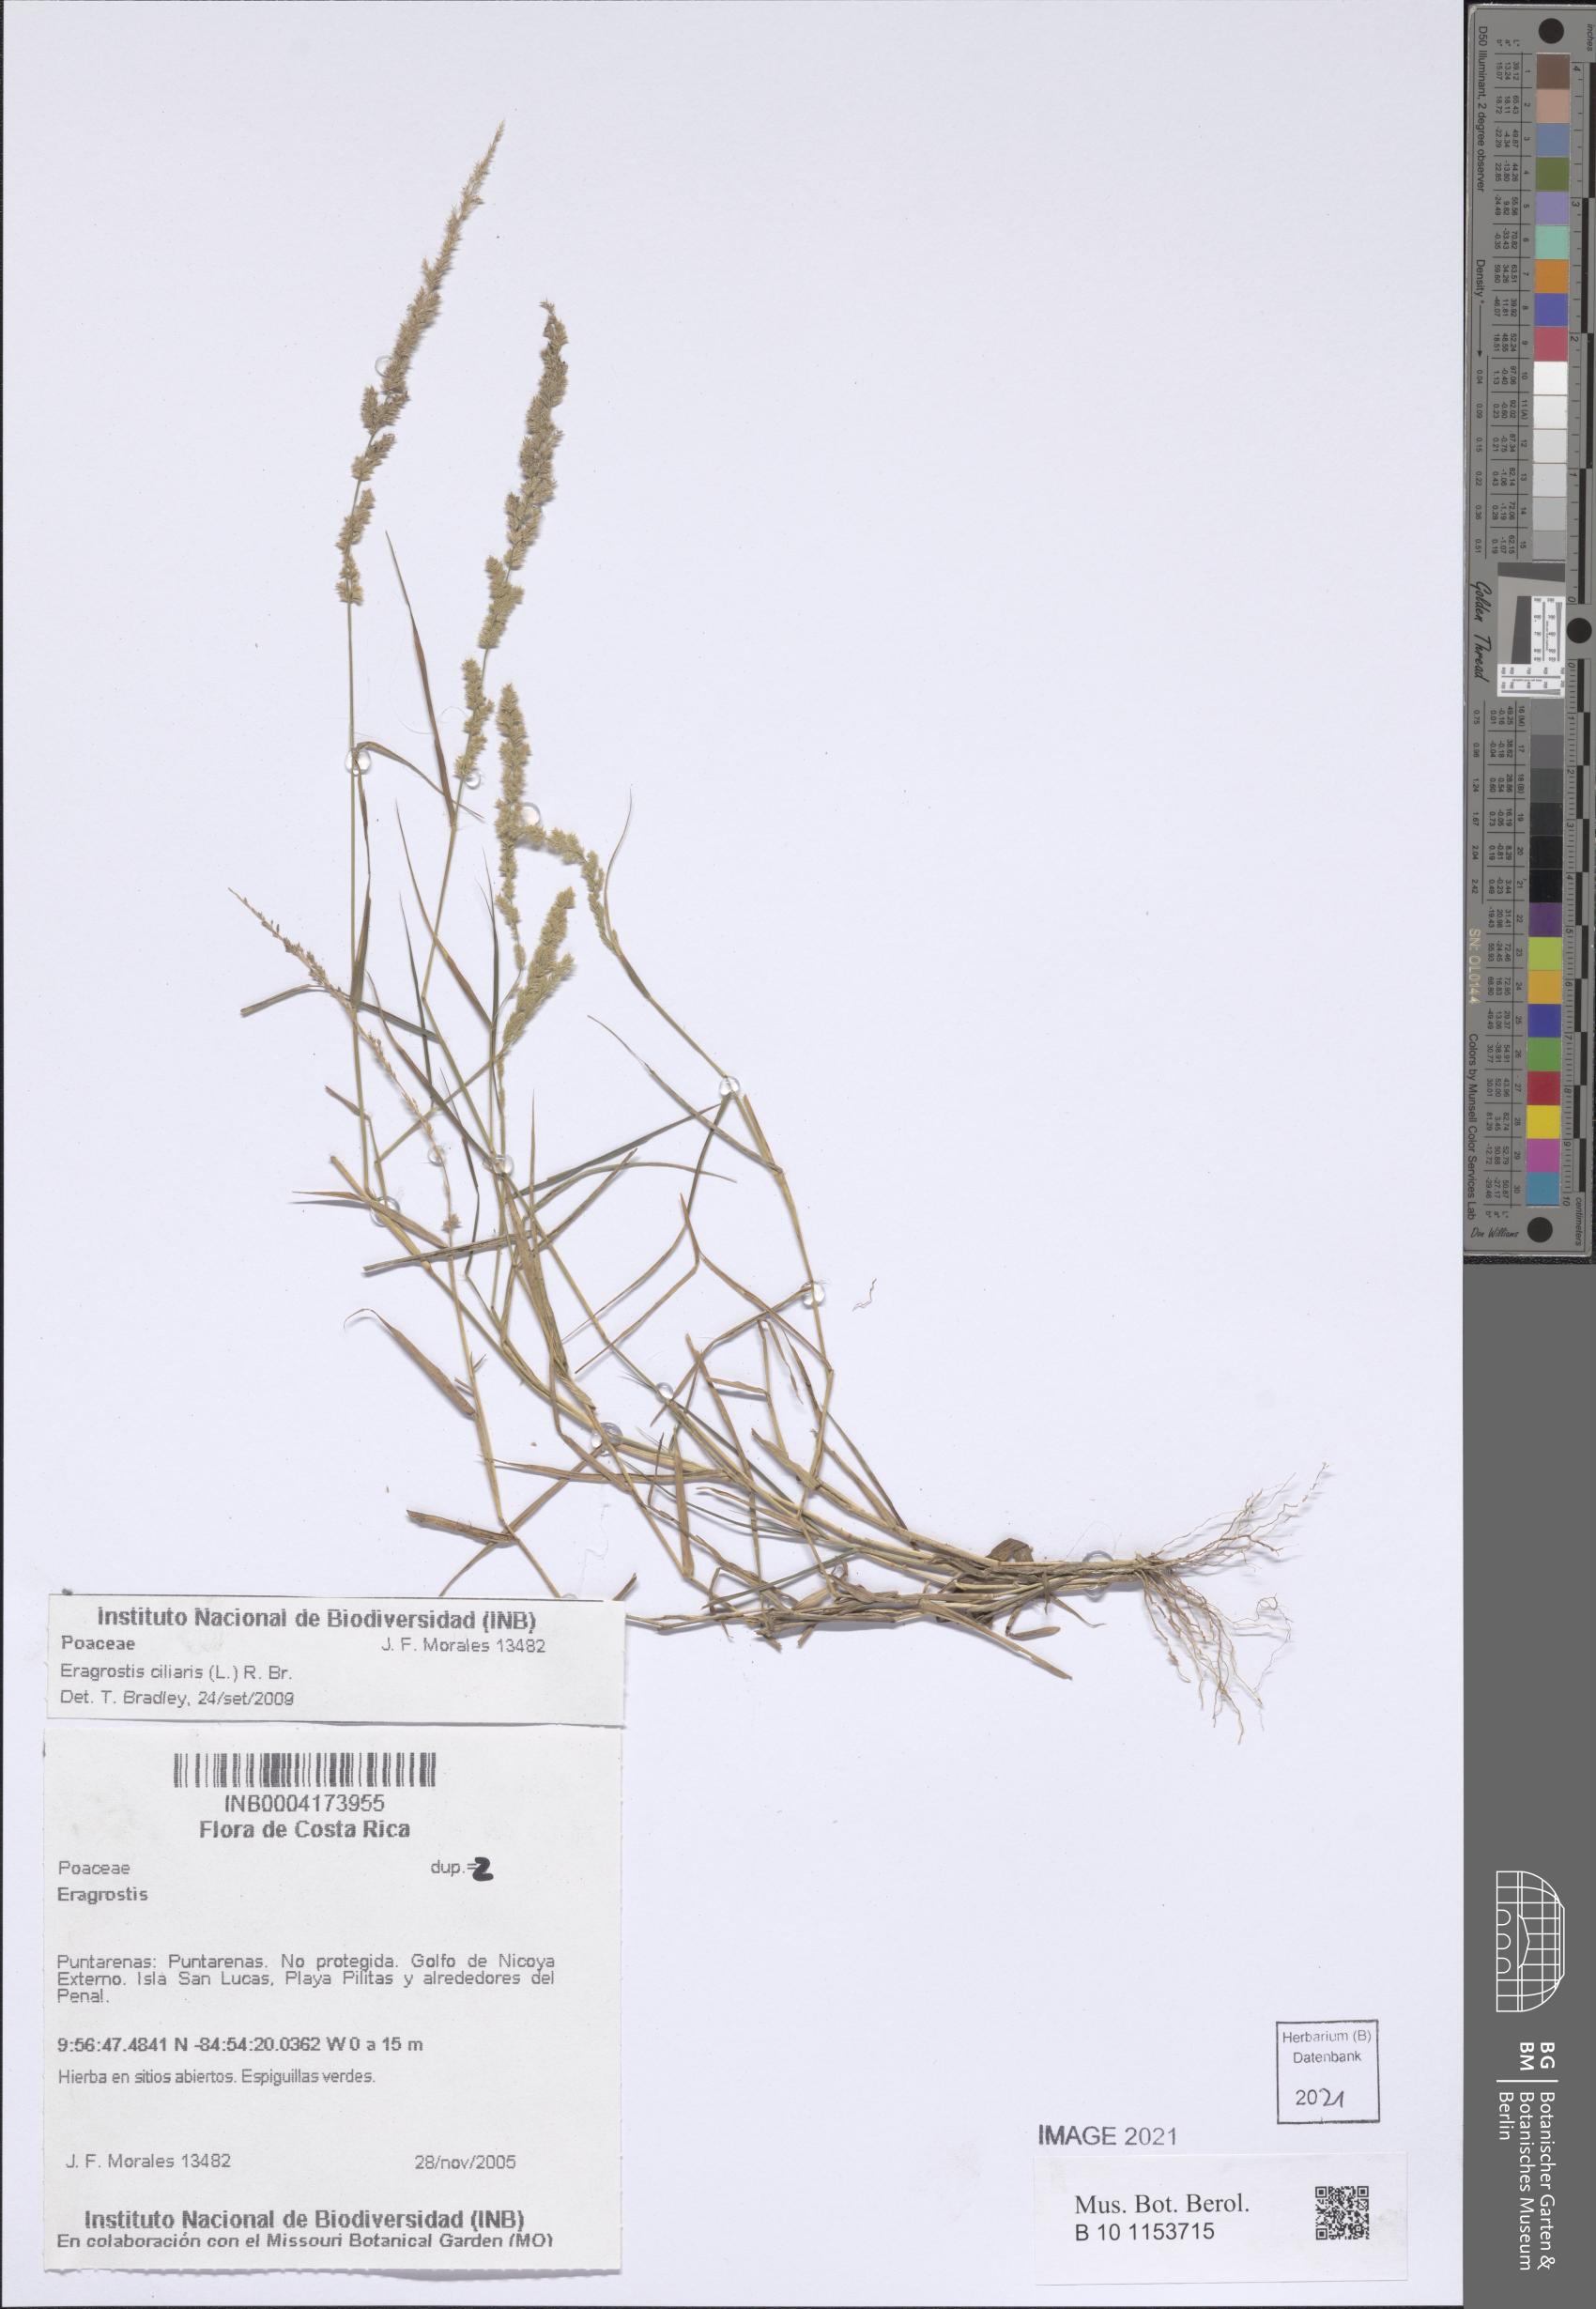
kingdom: Plantae
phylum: Tracheophyta
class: Liliopsida
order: Poales
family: Poaceae
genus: Eragrostis
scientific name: Eragrostis ciliaris
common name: Gophertail lovegrass
